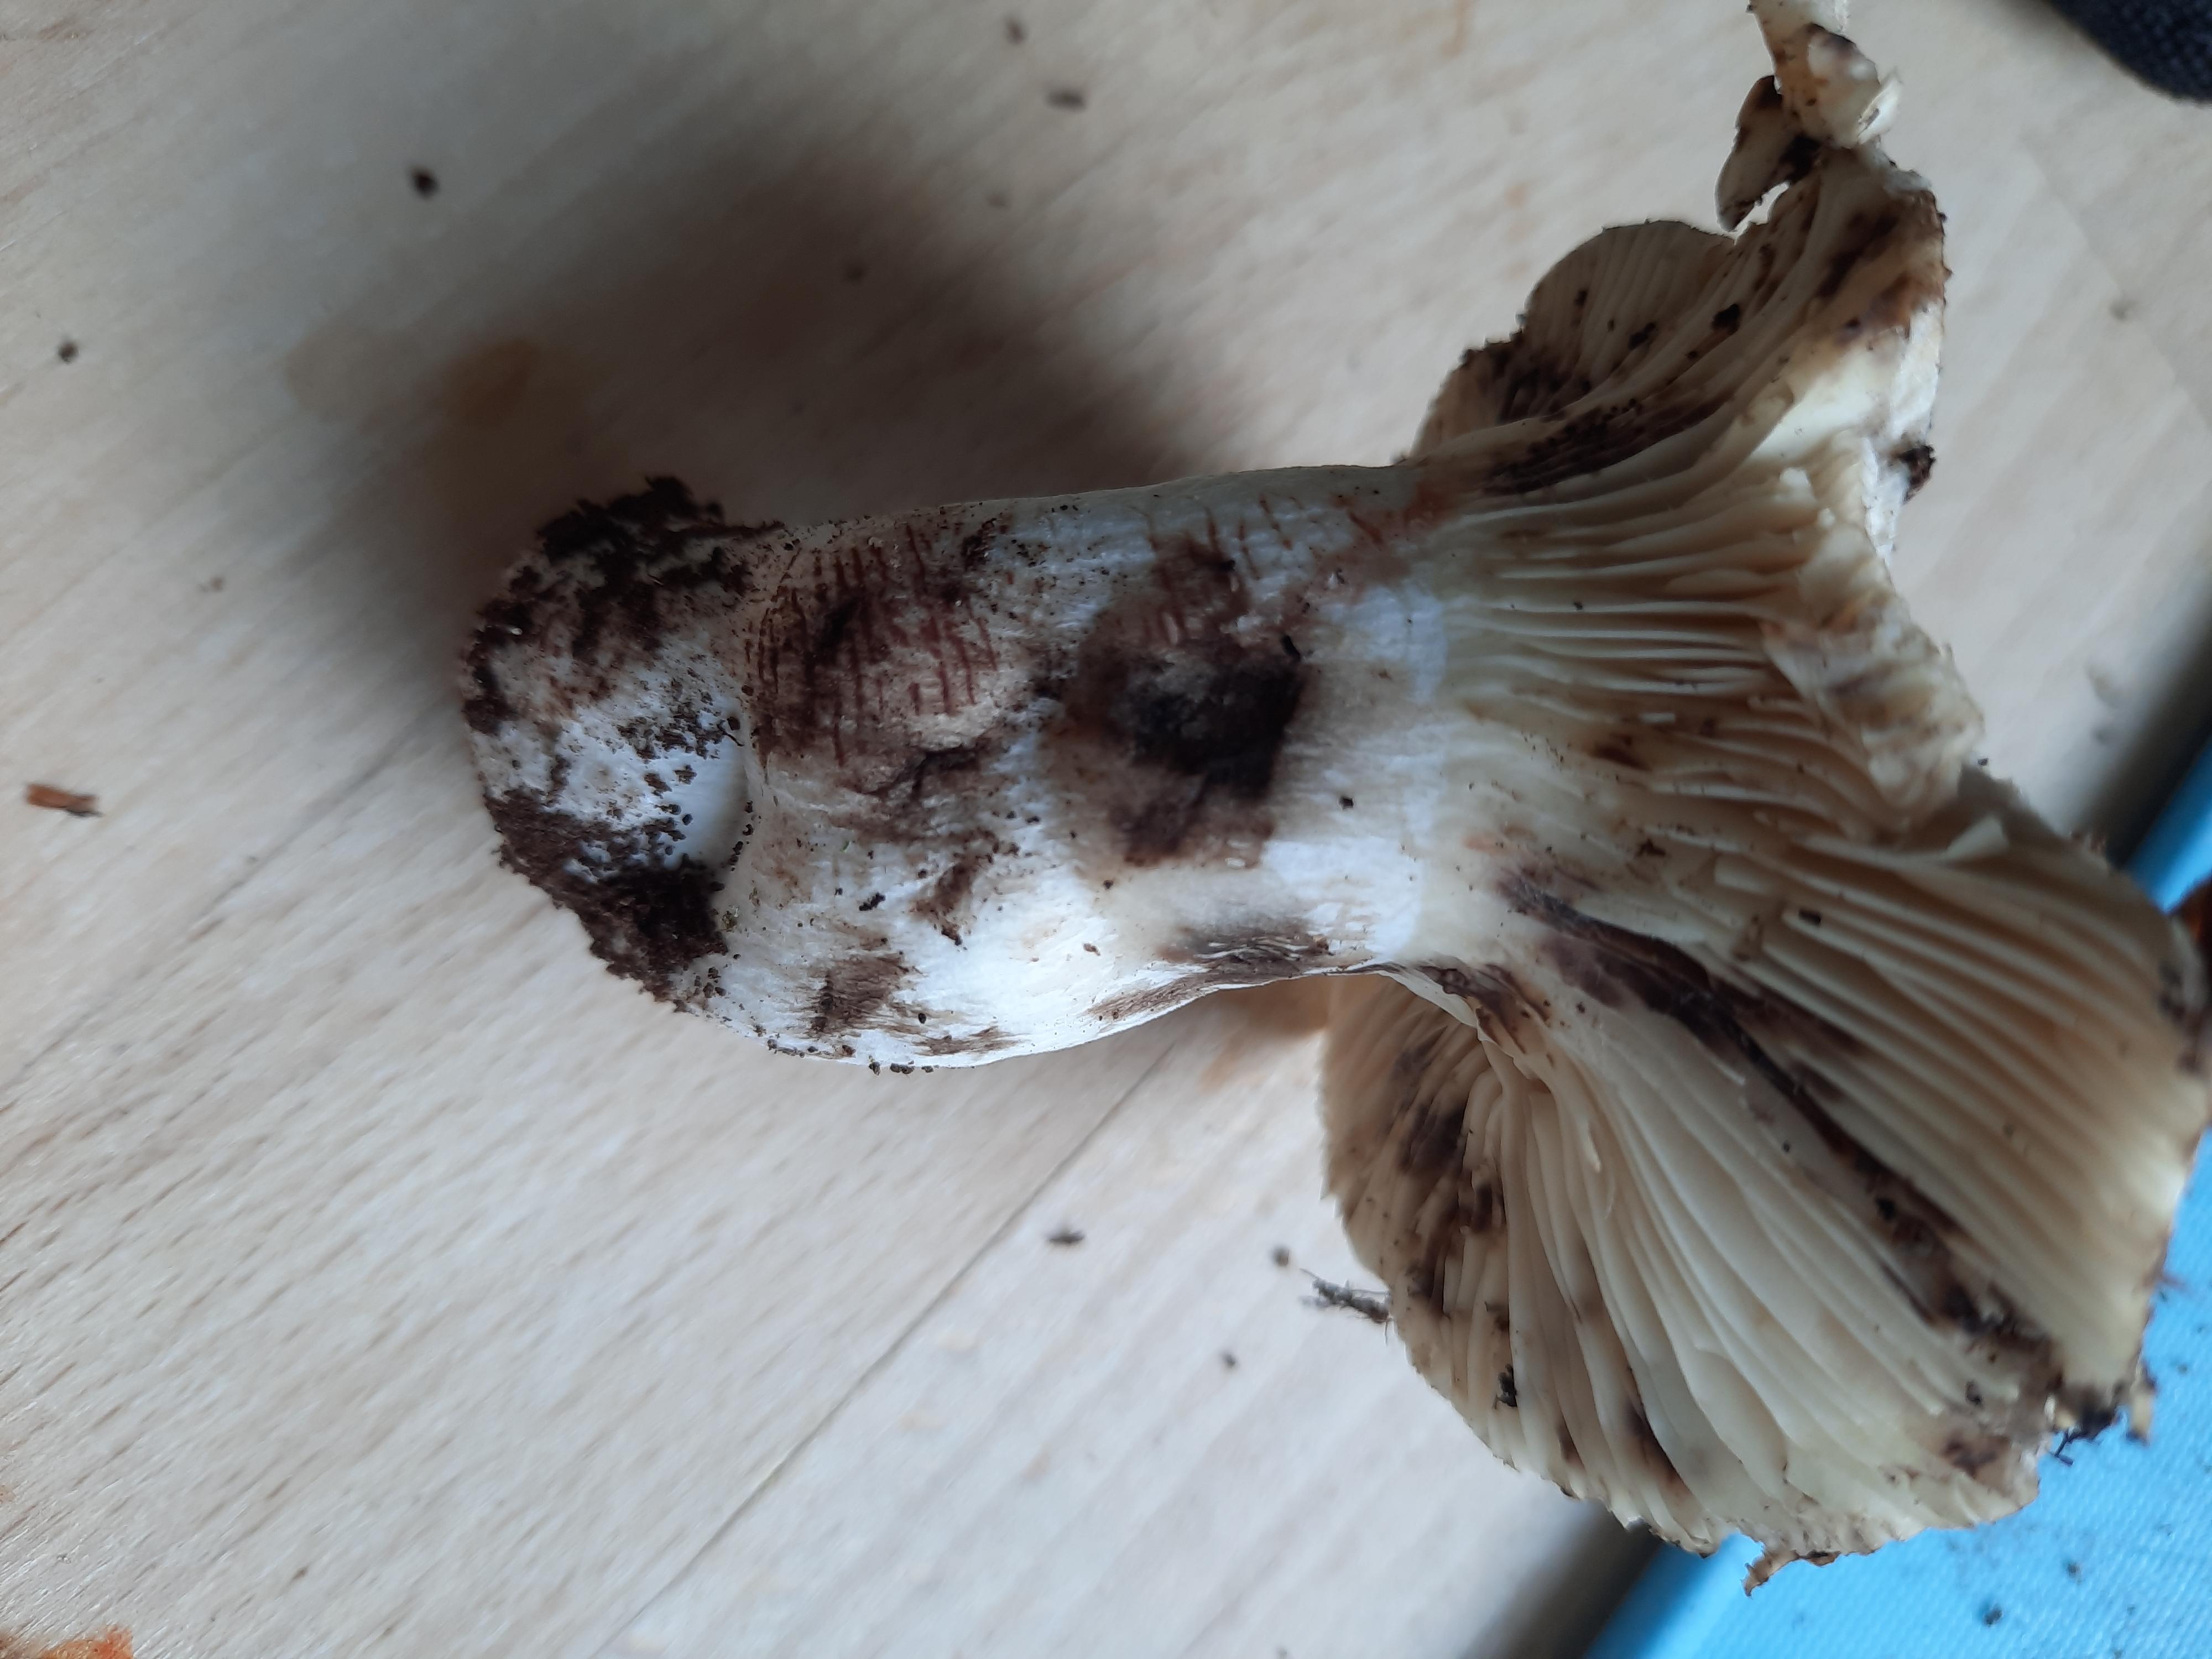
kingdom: Fungi
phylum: Basidiomycota
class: Agaricomycetes
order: Russulales
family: Russulaceae
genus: Russula
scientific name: Russula
